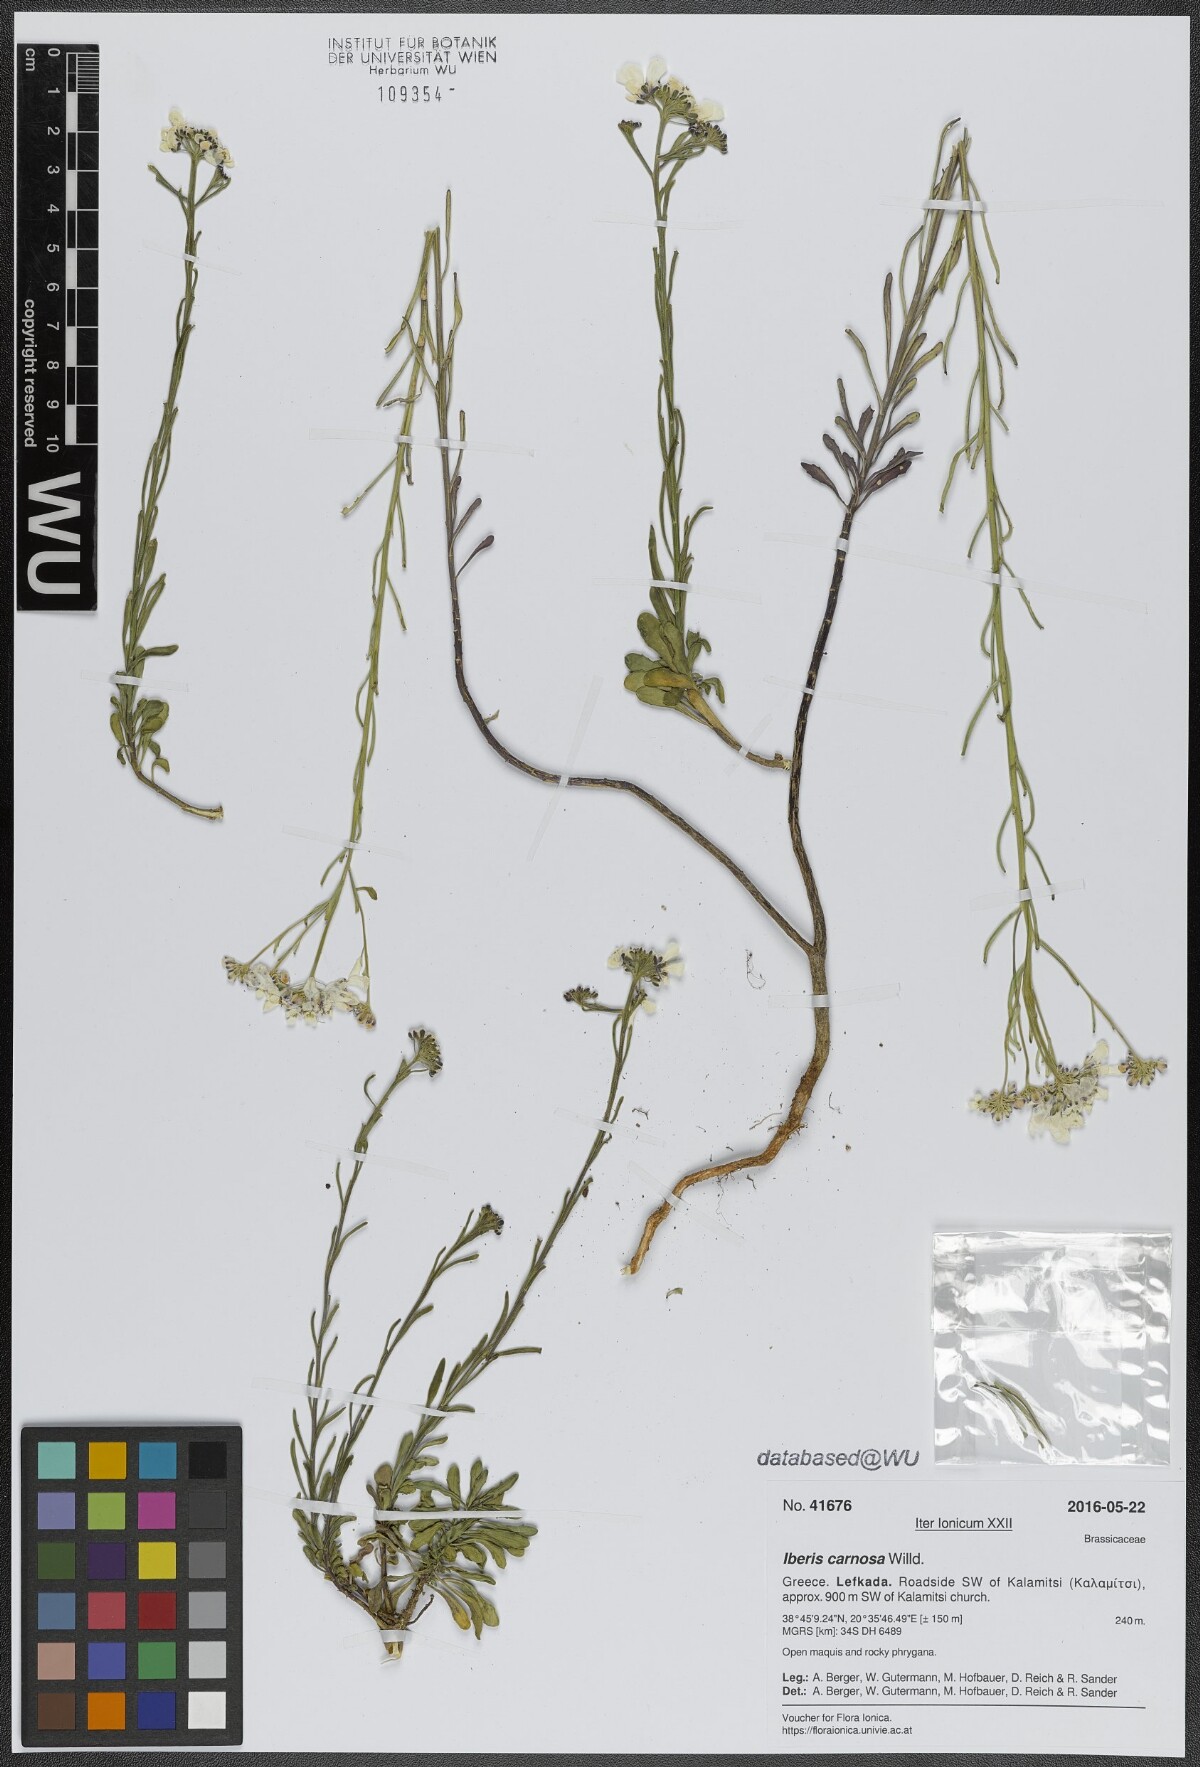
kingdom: Plantae
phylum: Tracheophyta
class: Magnoliopsida
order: Brassicales
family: Brassicaceae
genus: Iberis
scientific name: Iberis carnosa
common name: Pruit's candytuft
